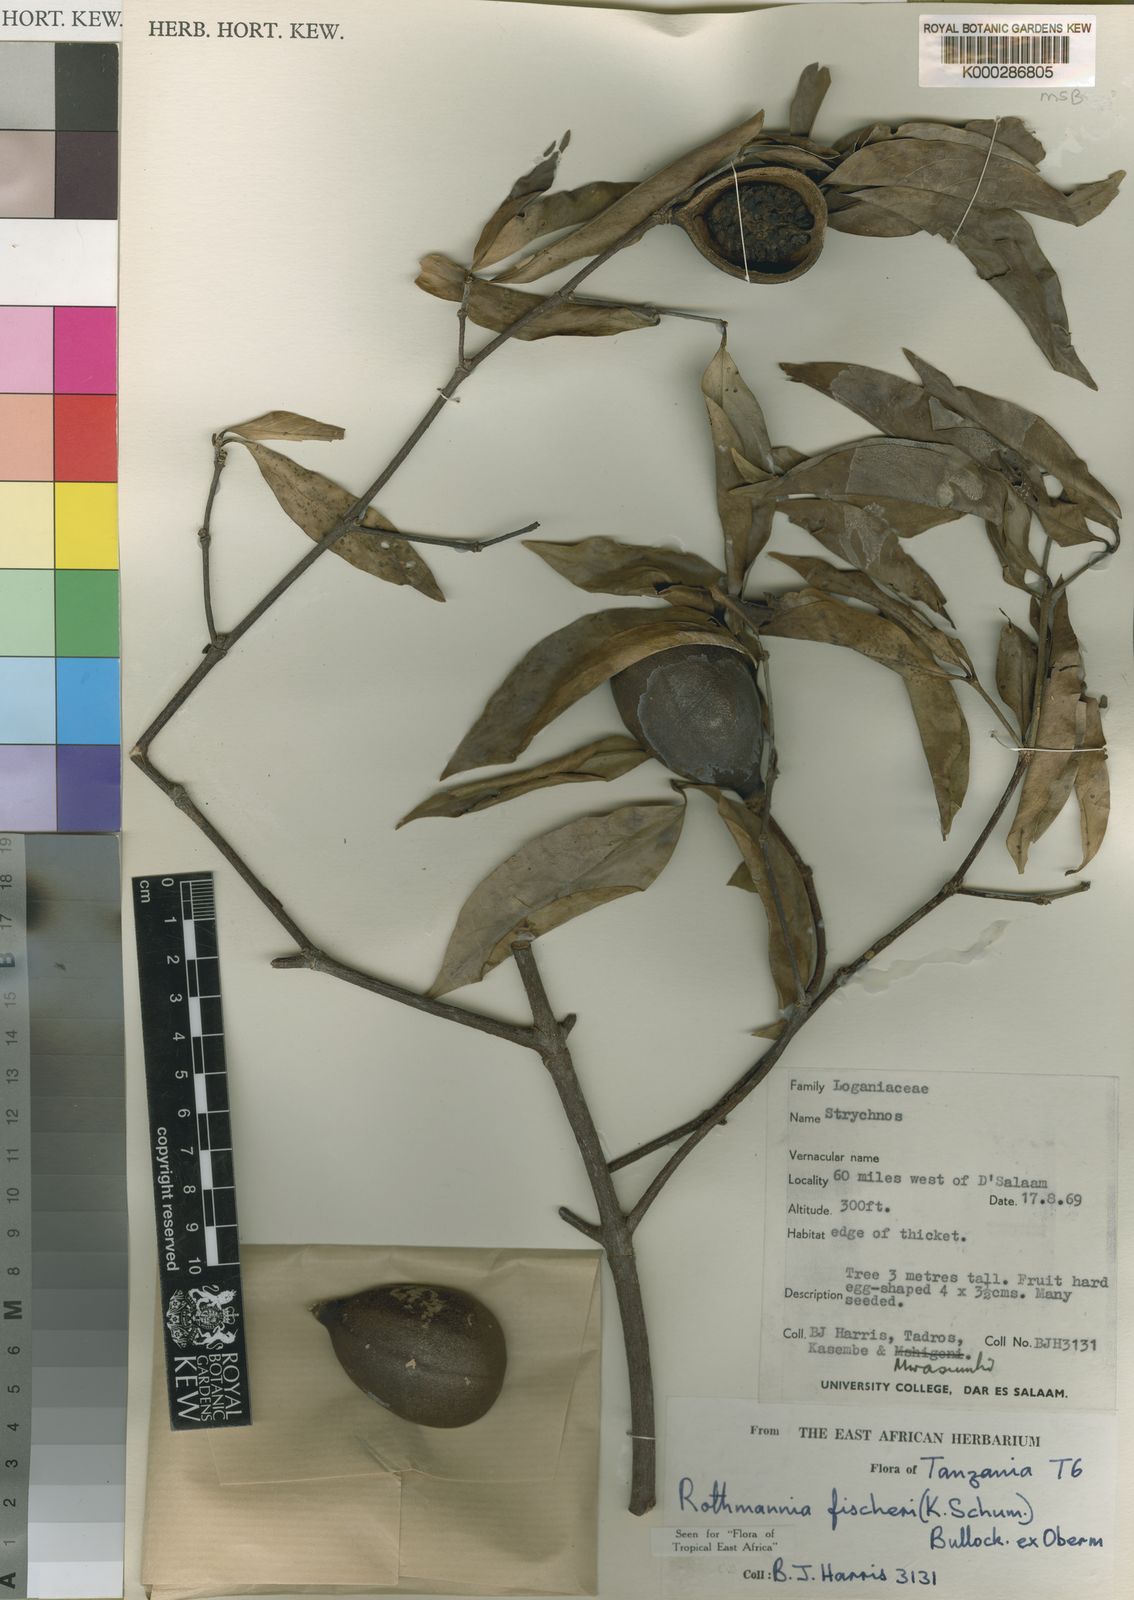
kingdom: Plantae
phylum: Tracheophyta
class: Magnoliopsida
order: Gentianales
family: Rubiaceae
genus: Rothmannia
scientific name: Rothmannia ravae
